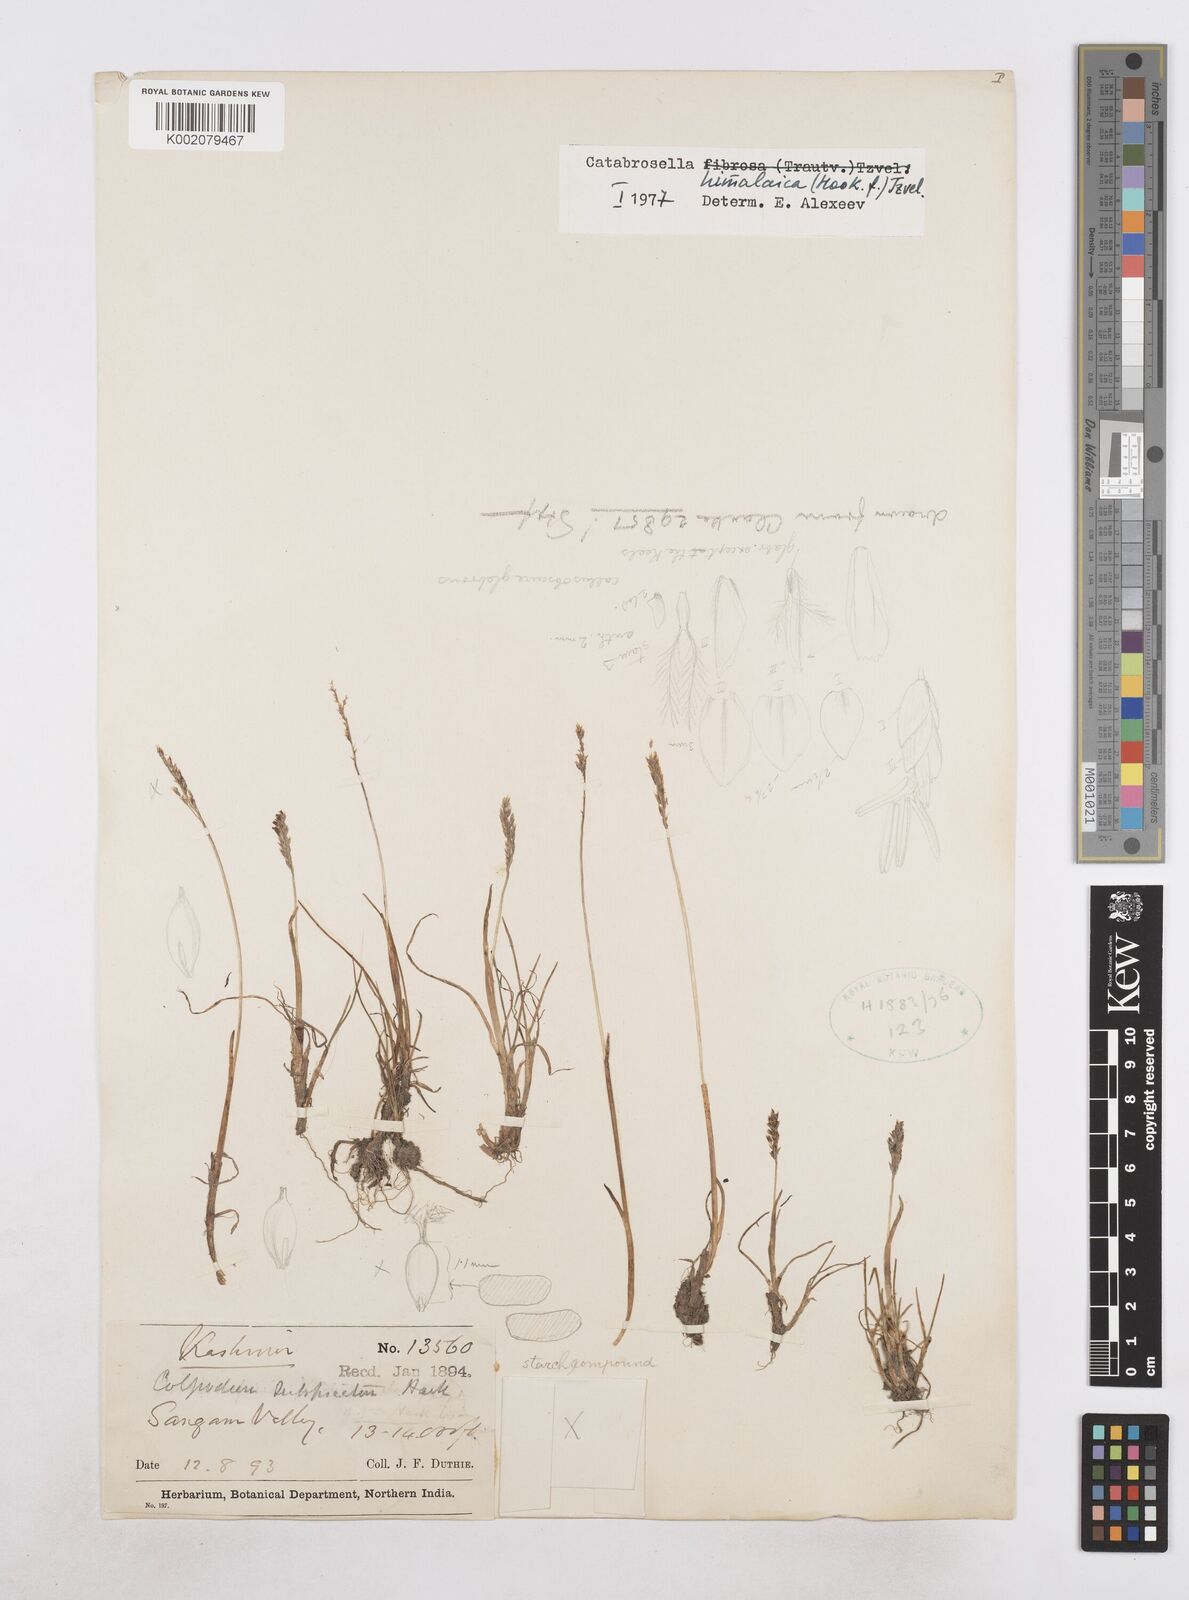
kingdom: Plantae
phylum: Tracheophyta
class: Liliopsida
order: Poales
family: Poaceae
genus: Catabrosella
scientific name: Catabrosella himalaica
